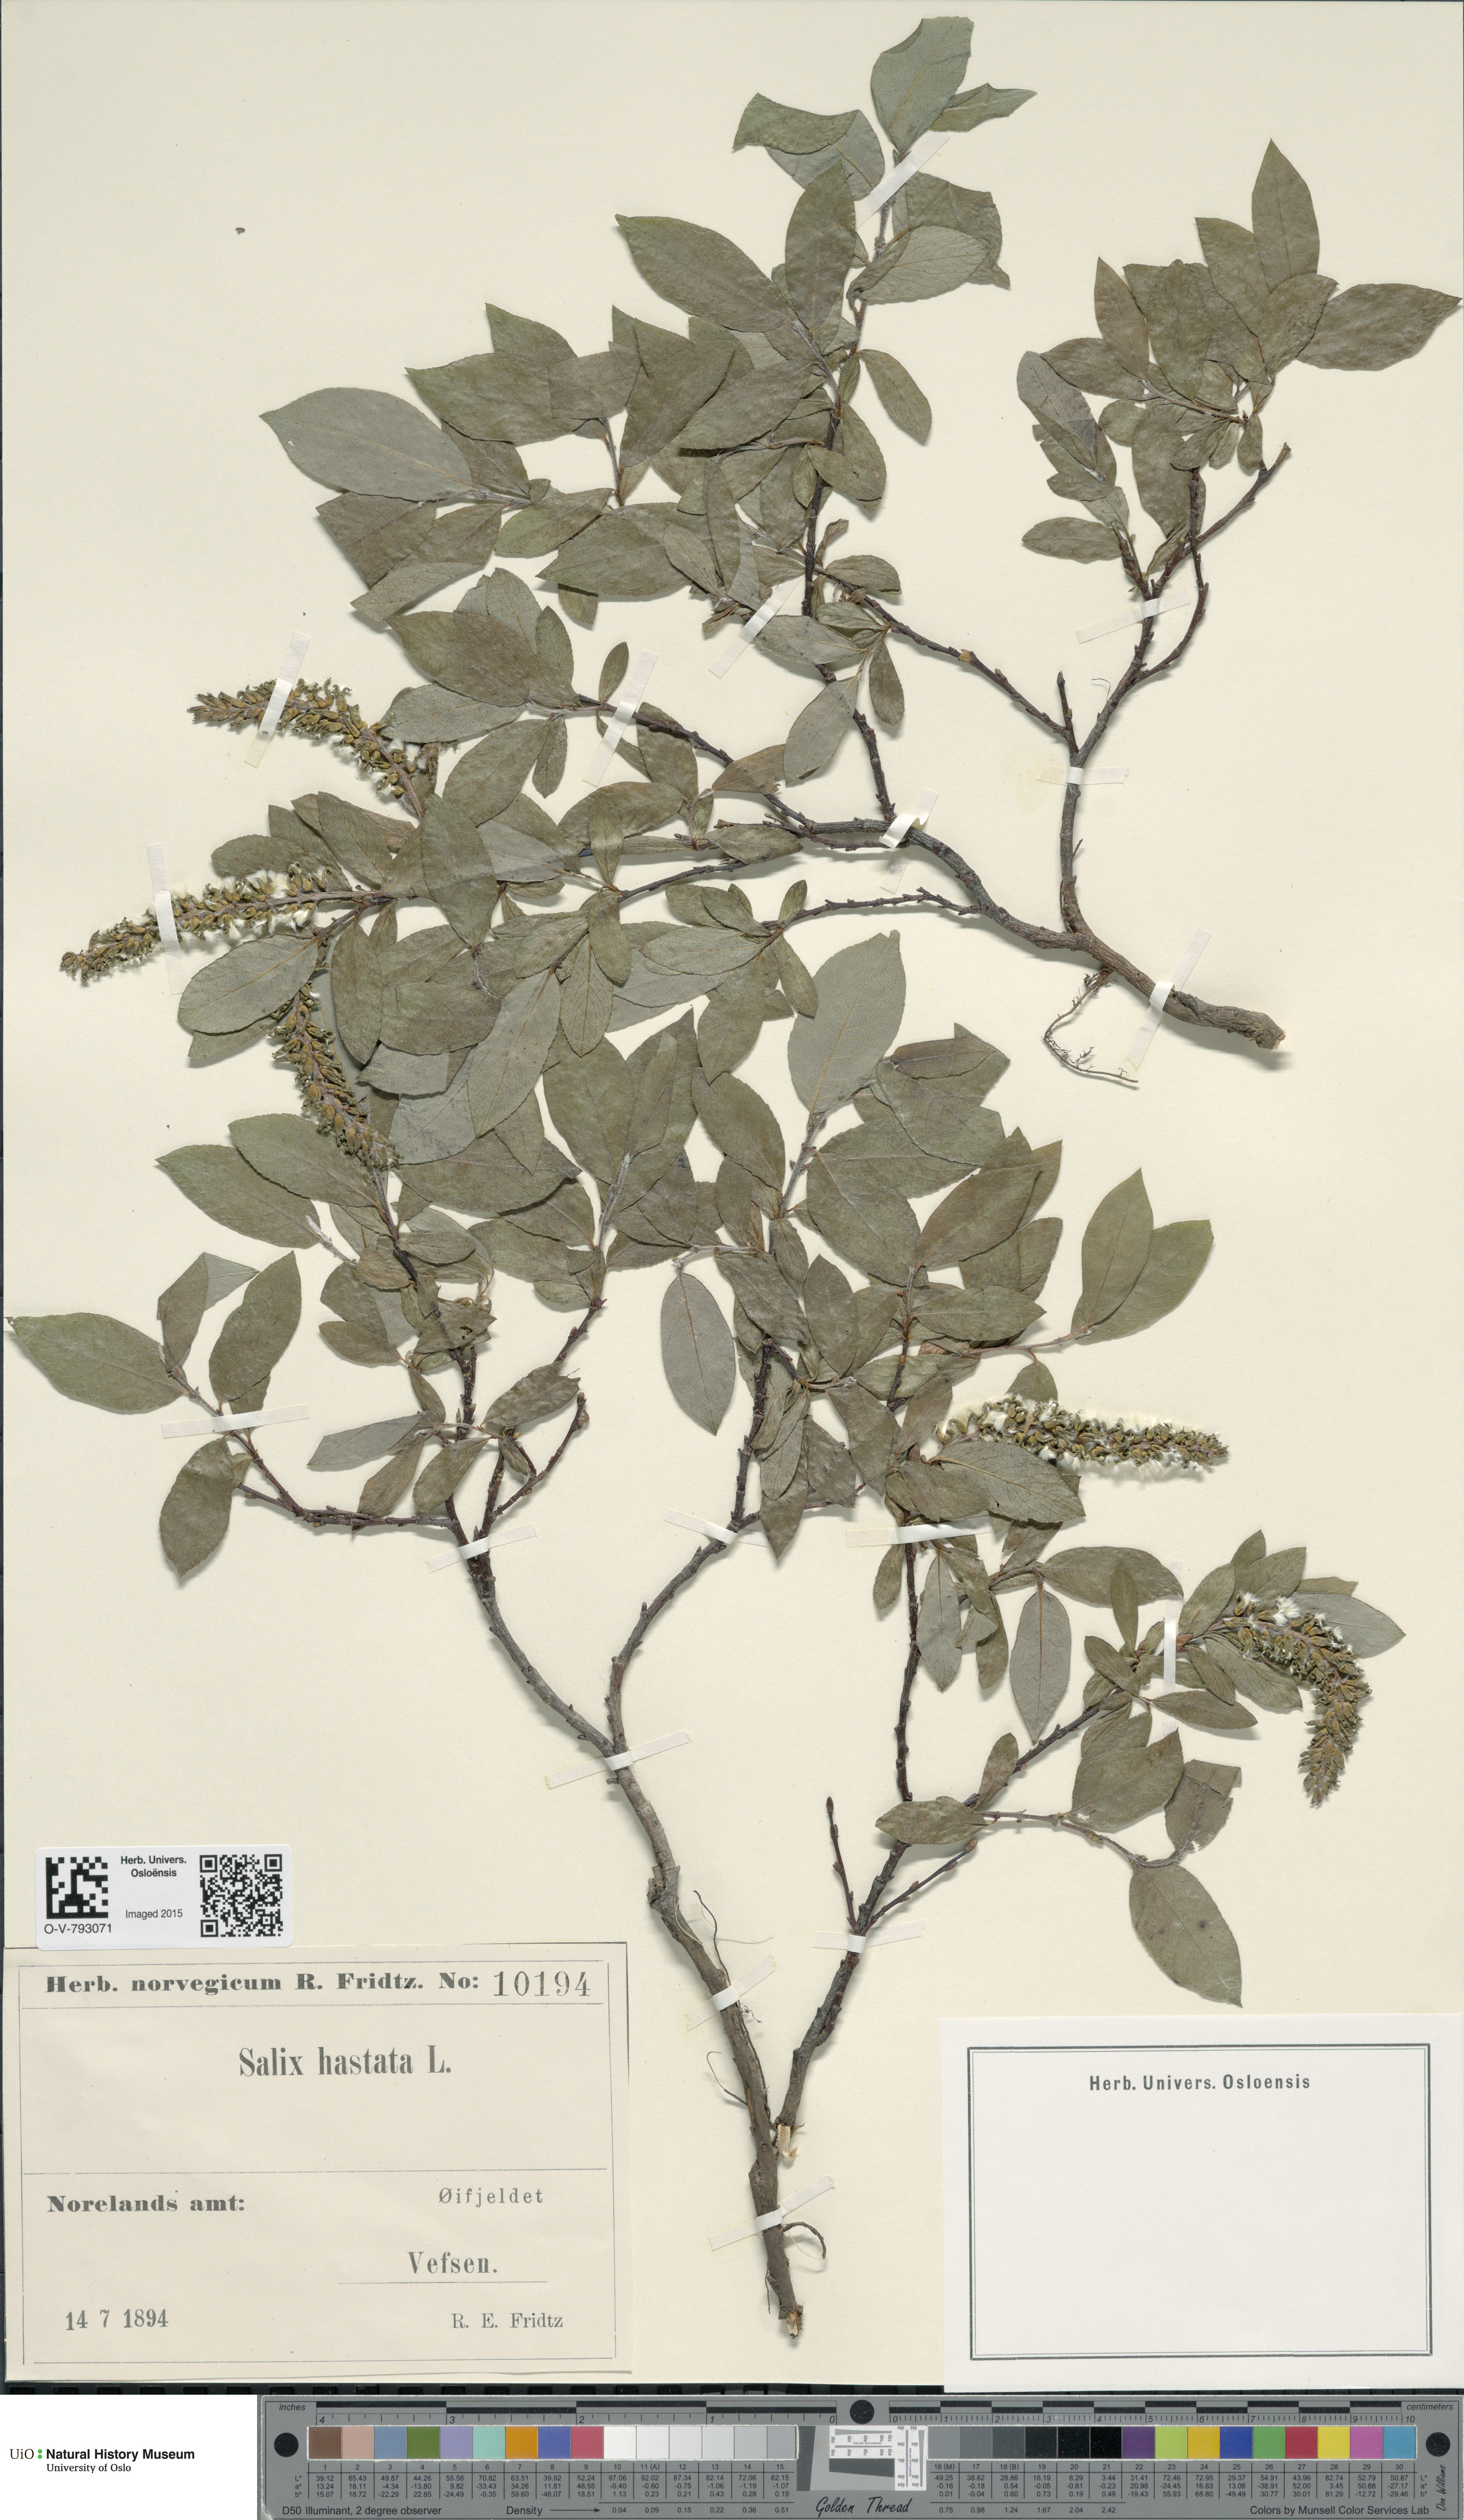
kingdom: Plantae
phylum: Tracheophyta
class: Magnoliopsida
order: Malpighiales
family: Salicaceae
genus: Salix
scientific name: Salix hastata
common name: Halberd willow
